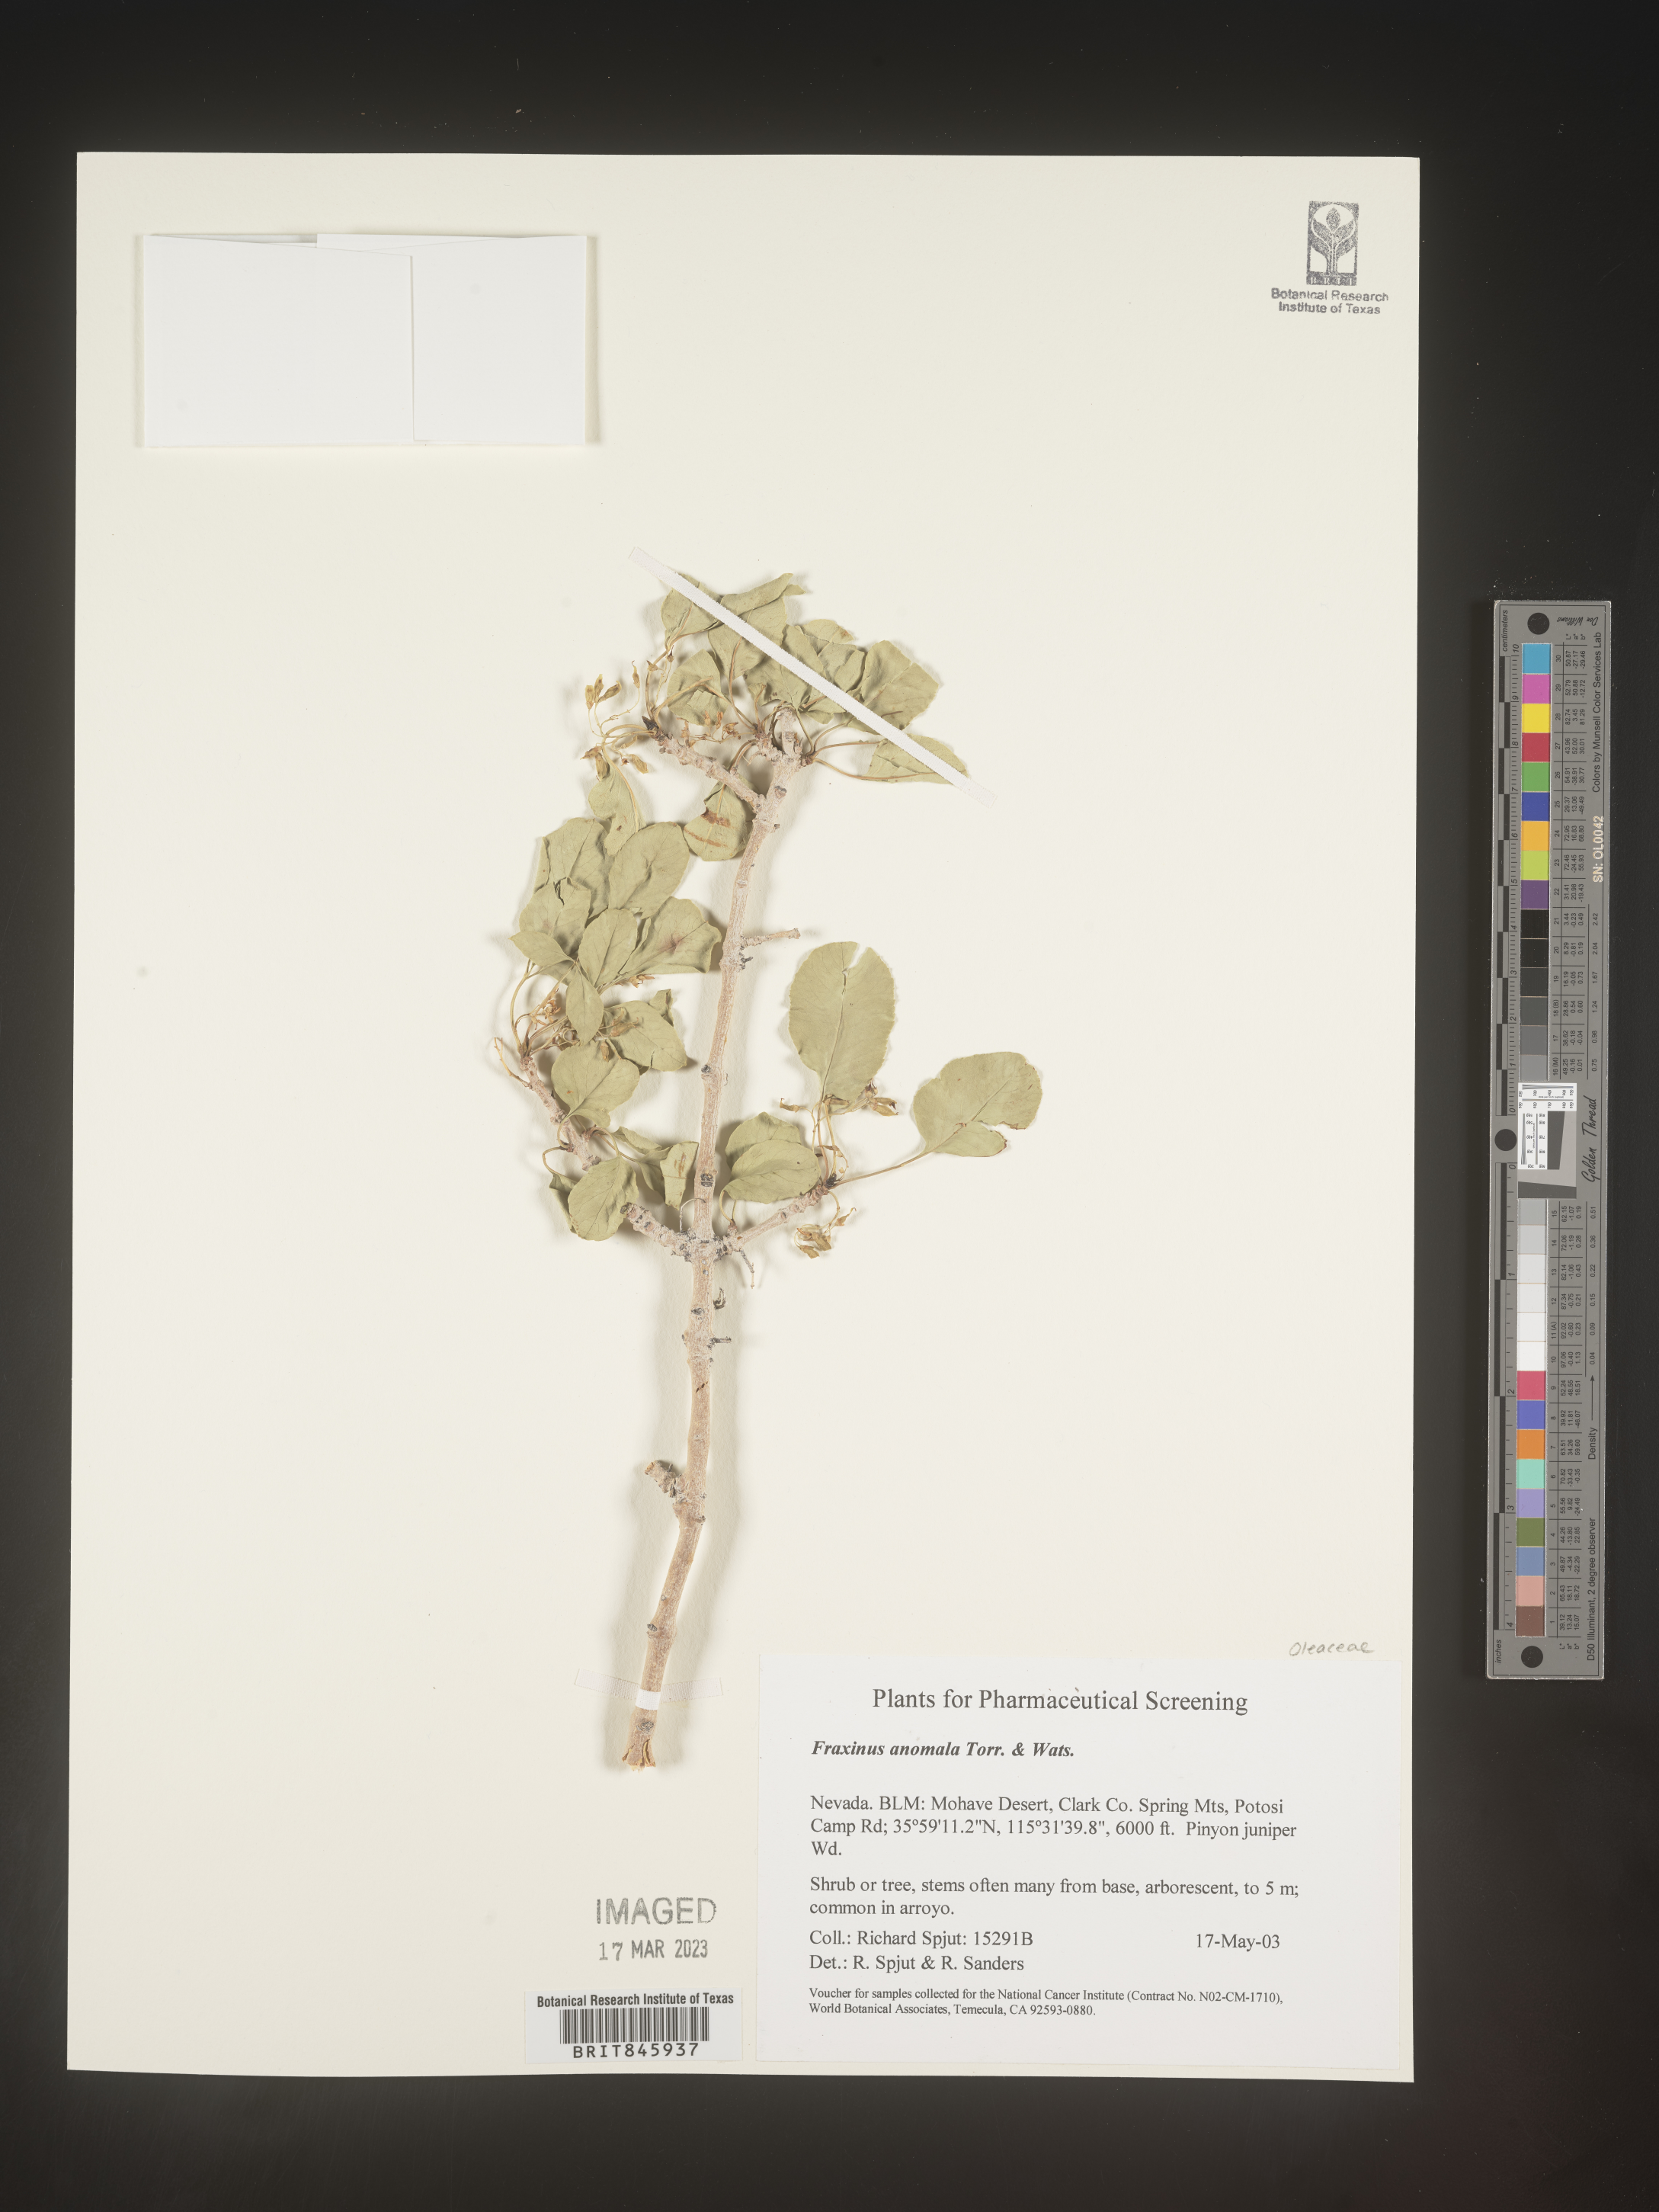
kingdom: Plantae
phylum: Tracheophyta
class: Magnoliopsida
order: Lamiales
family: Oleaceae
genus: Fraxinus
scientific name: Fraxinus anomala
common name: Utah ash
